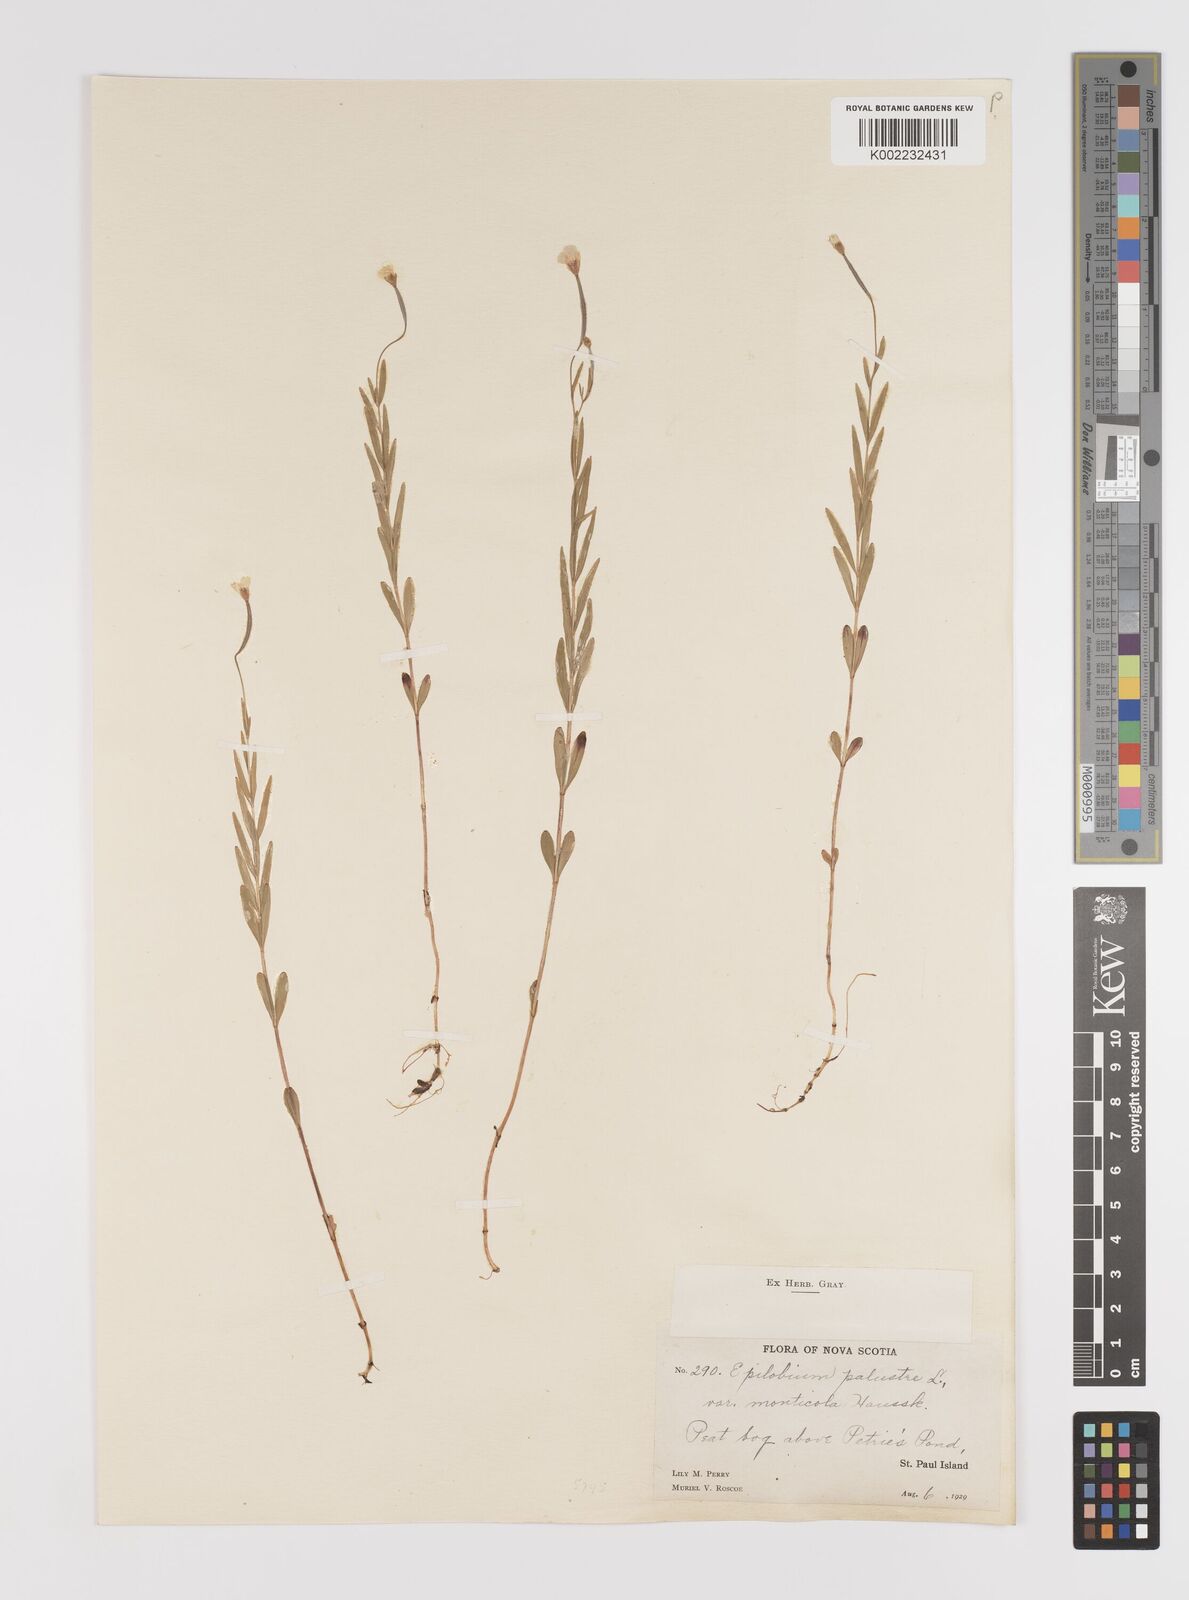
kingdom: Plantae
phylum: Tracheophyta
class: Magnoliopsida
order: Myrtales
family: Onagraceae
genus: Epilobium
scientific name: Epilobium palustre
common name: Marsh willowherb
